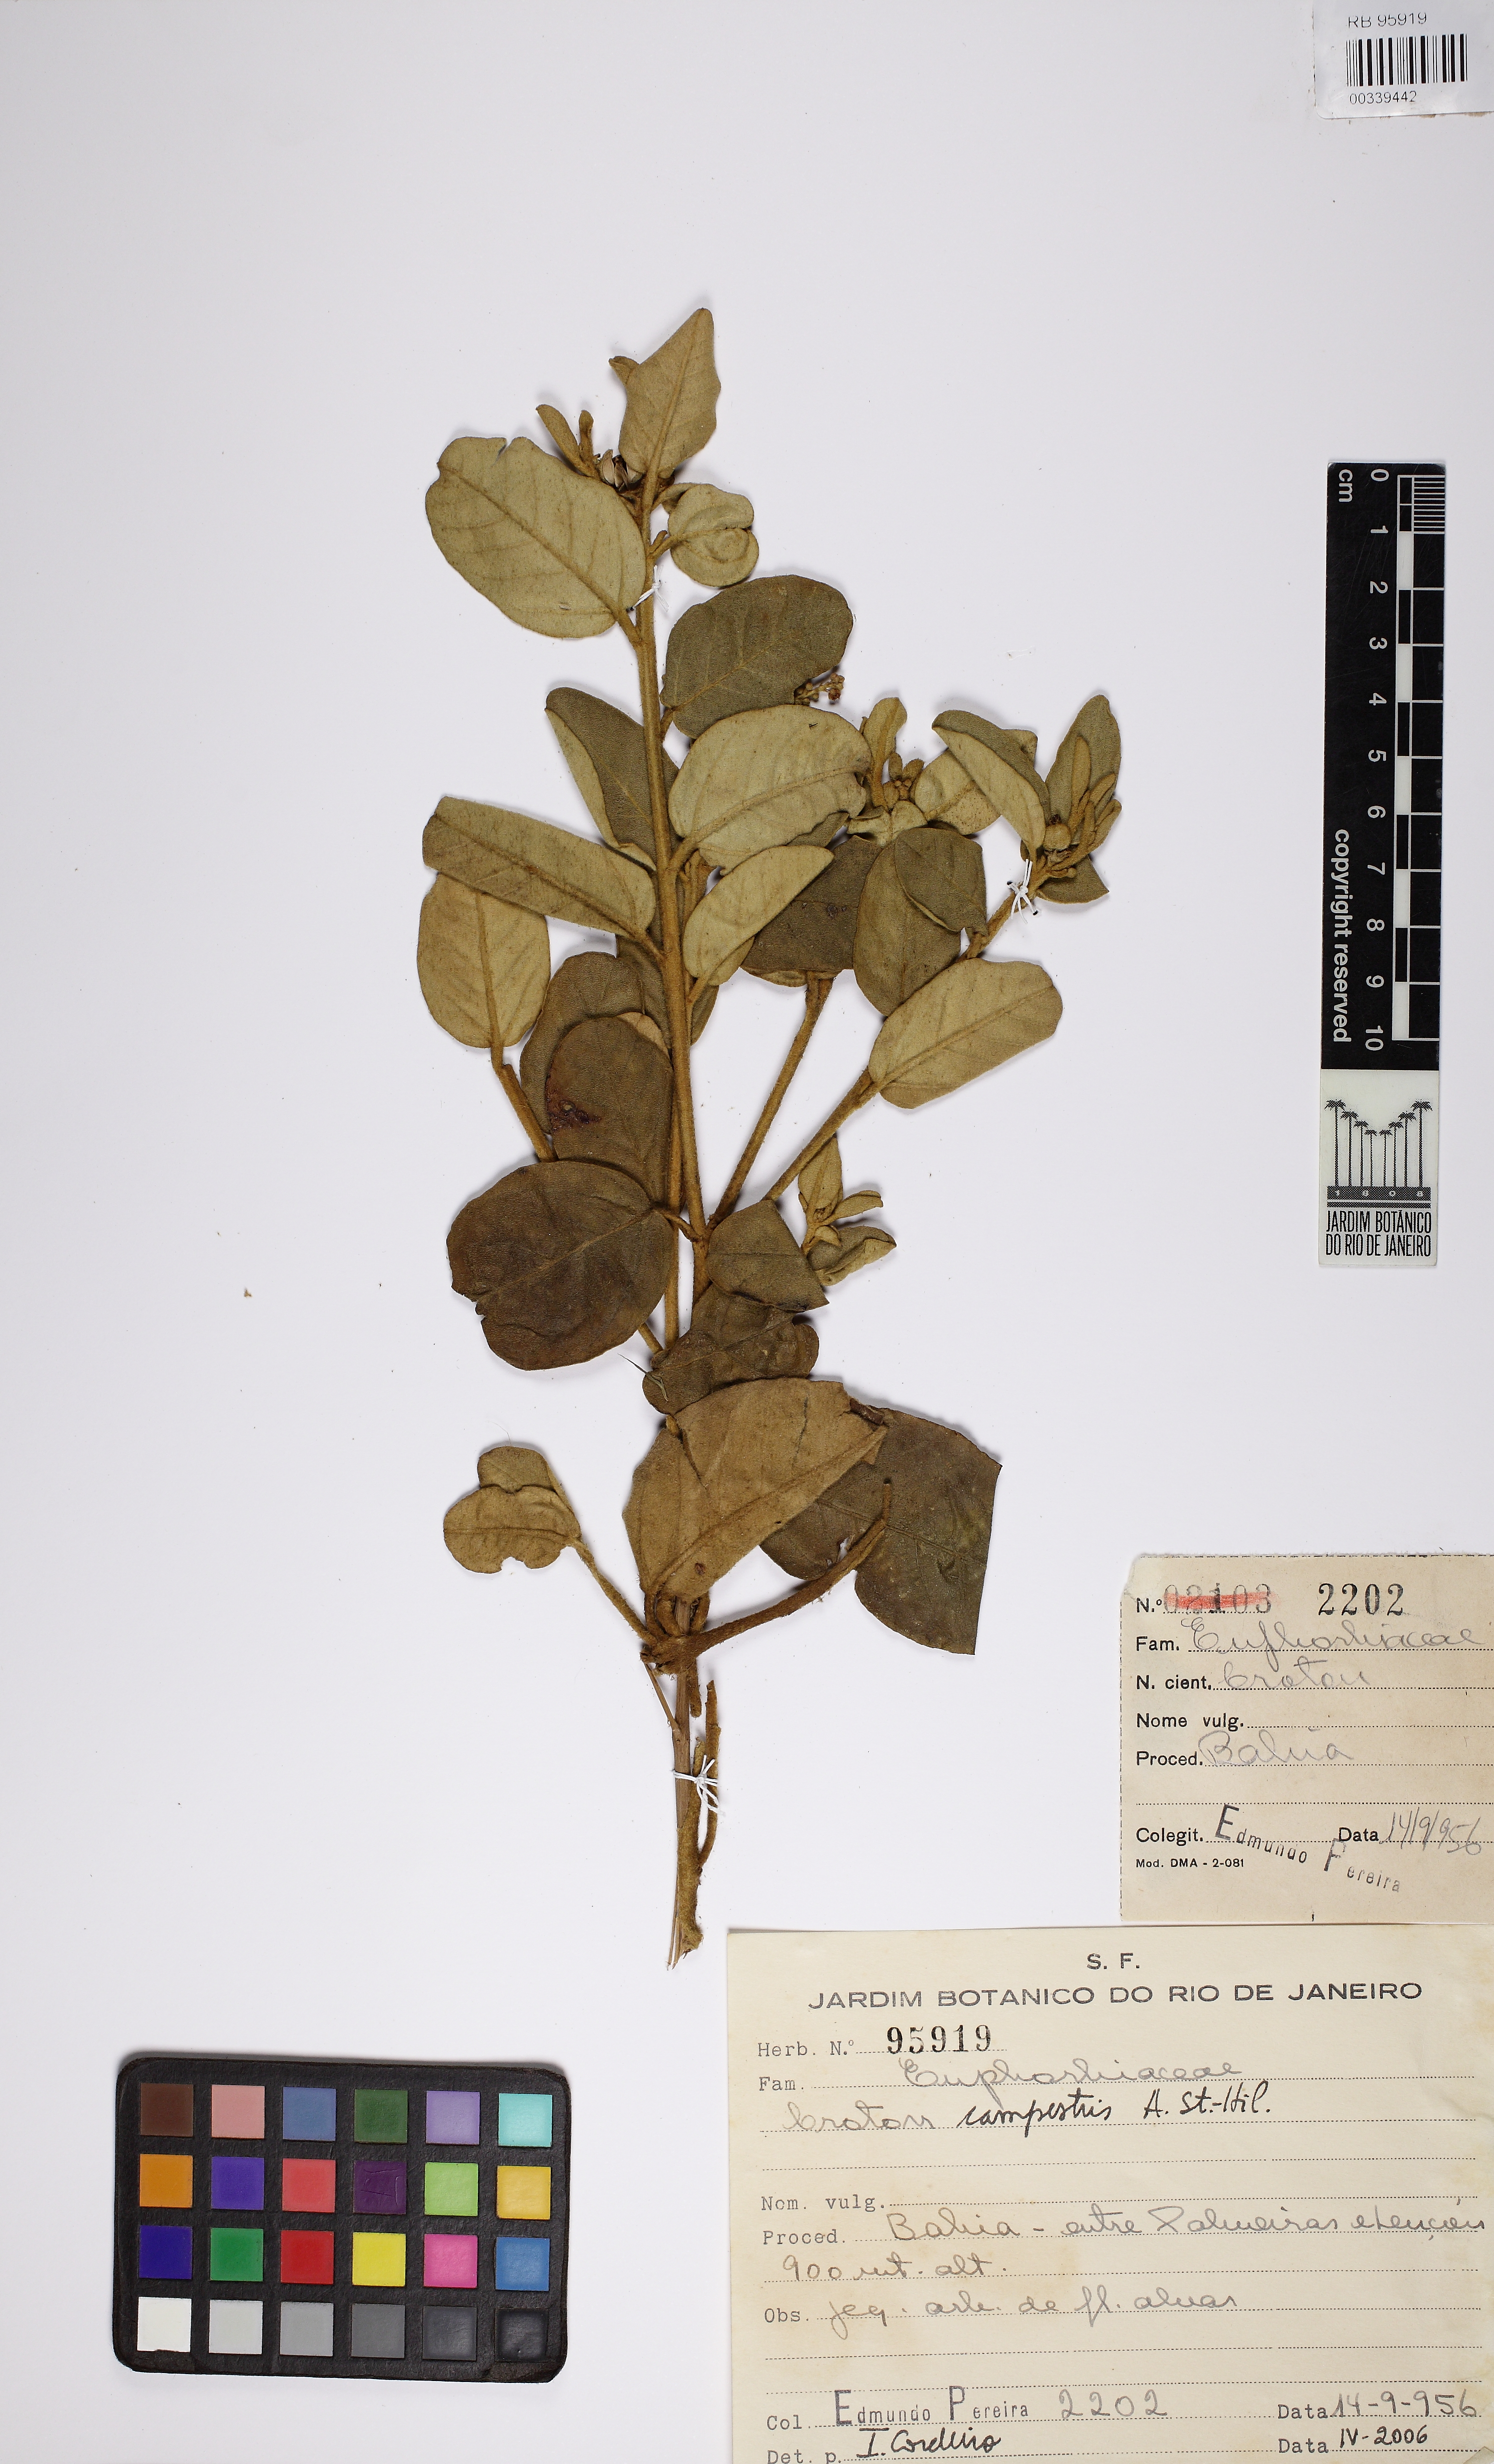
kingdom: Plantae
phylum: Tracheophyta
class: Magnoliopsida
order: Malpighiales
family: Euphorbiaceae
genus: Croton
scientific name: Croton campestris
